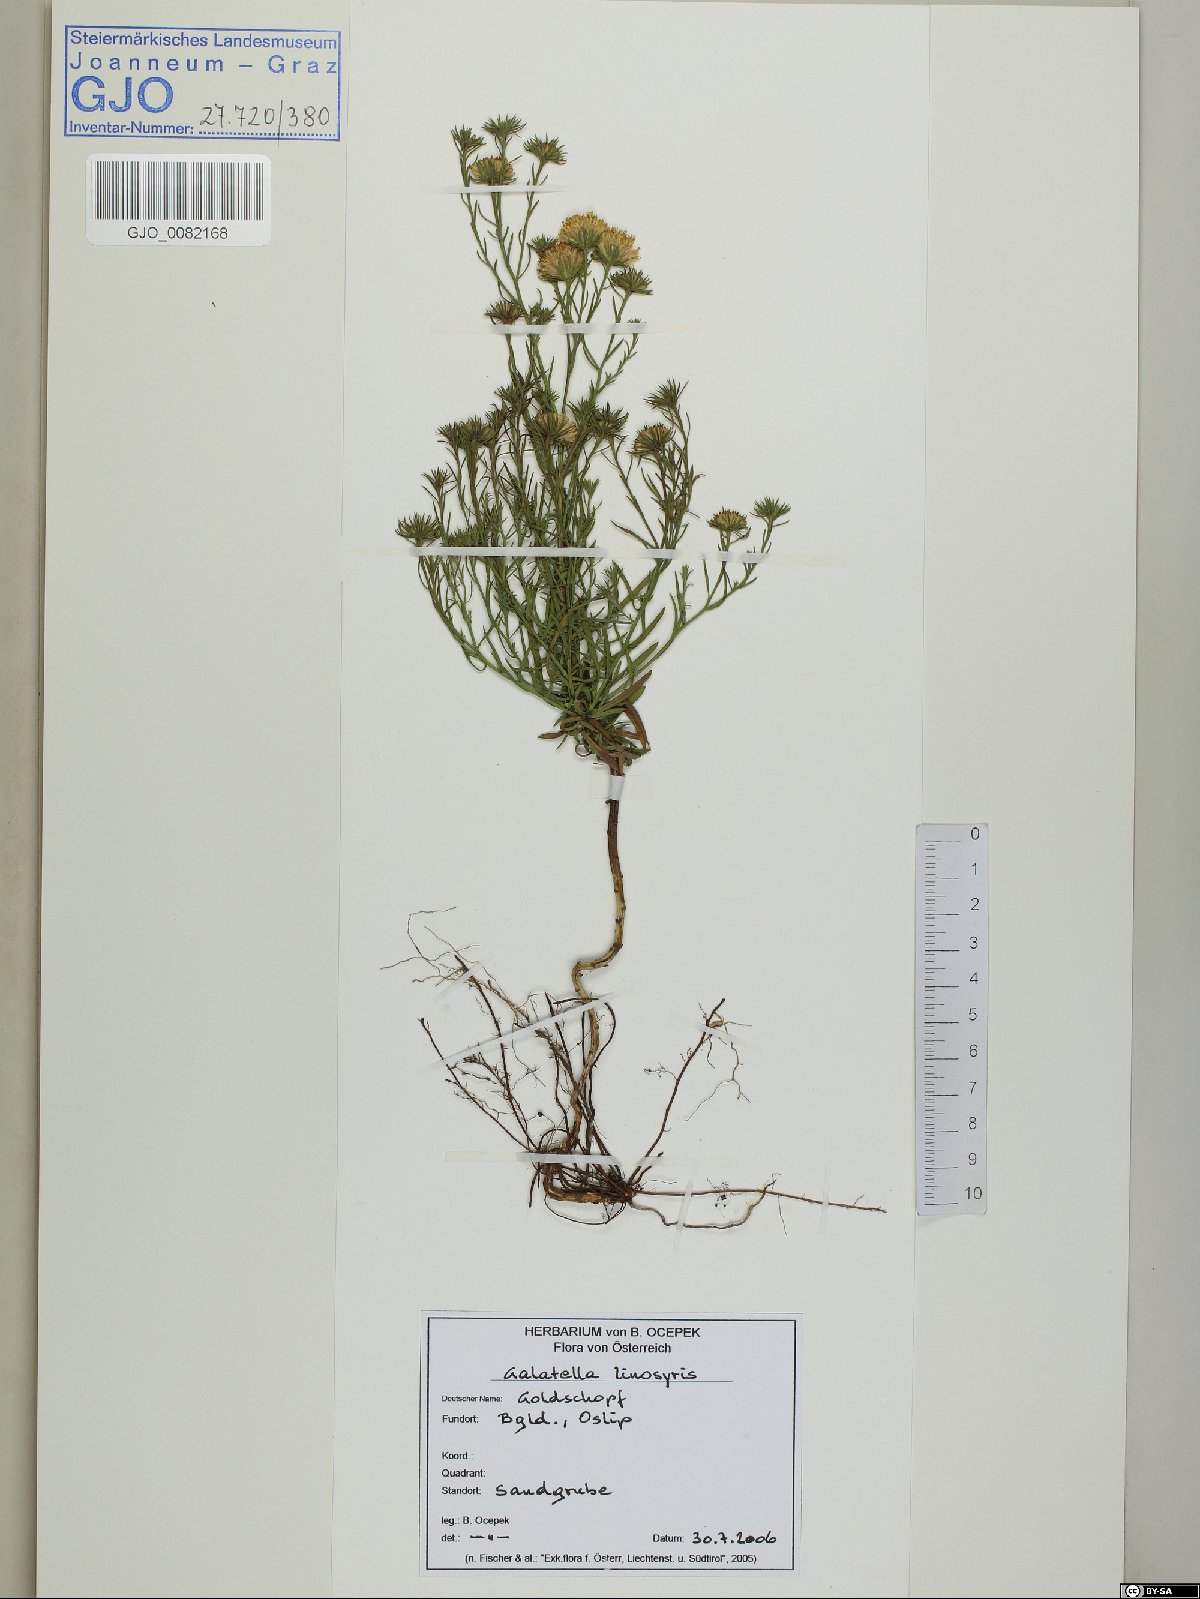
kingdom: Plantae
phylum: Tracheophyta
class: Magnoliopsida
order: Asterales
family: Asteraceae
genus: Galatella
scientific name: Galatella linosyris
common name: Goldilocks aster
